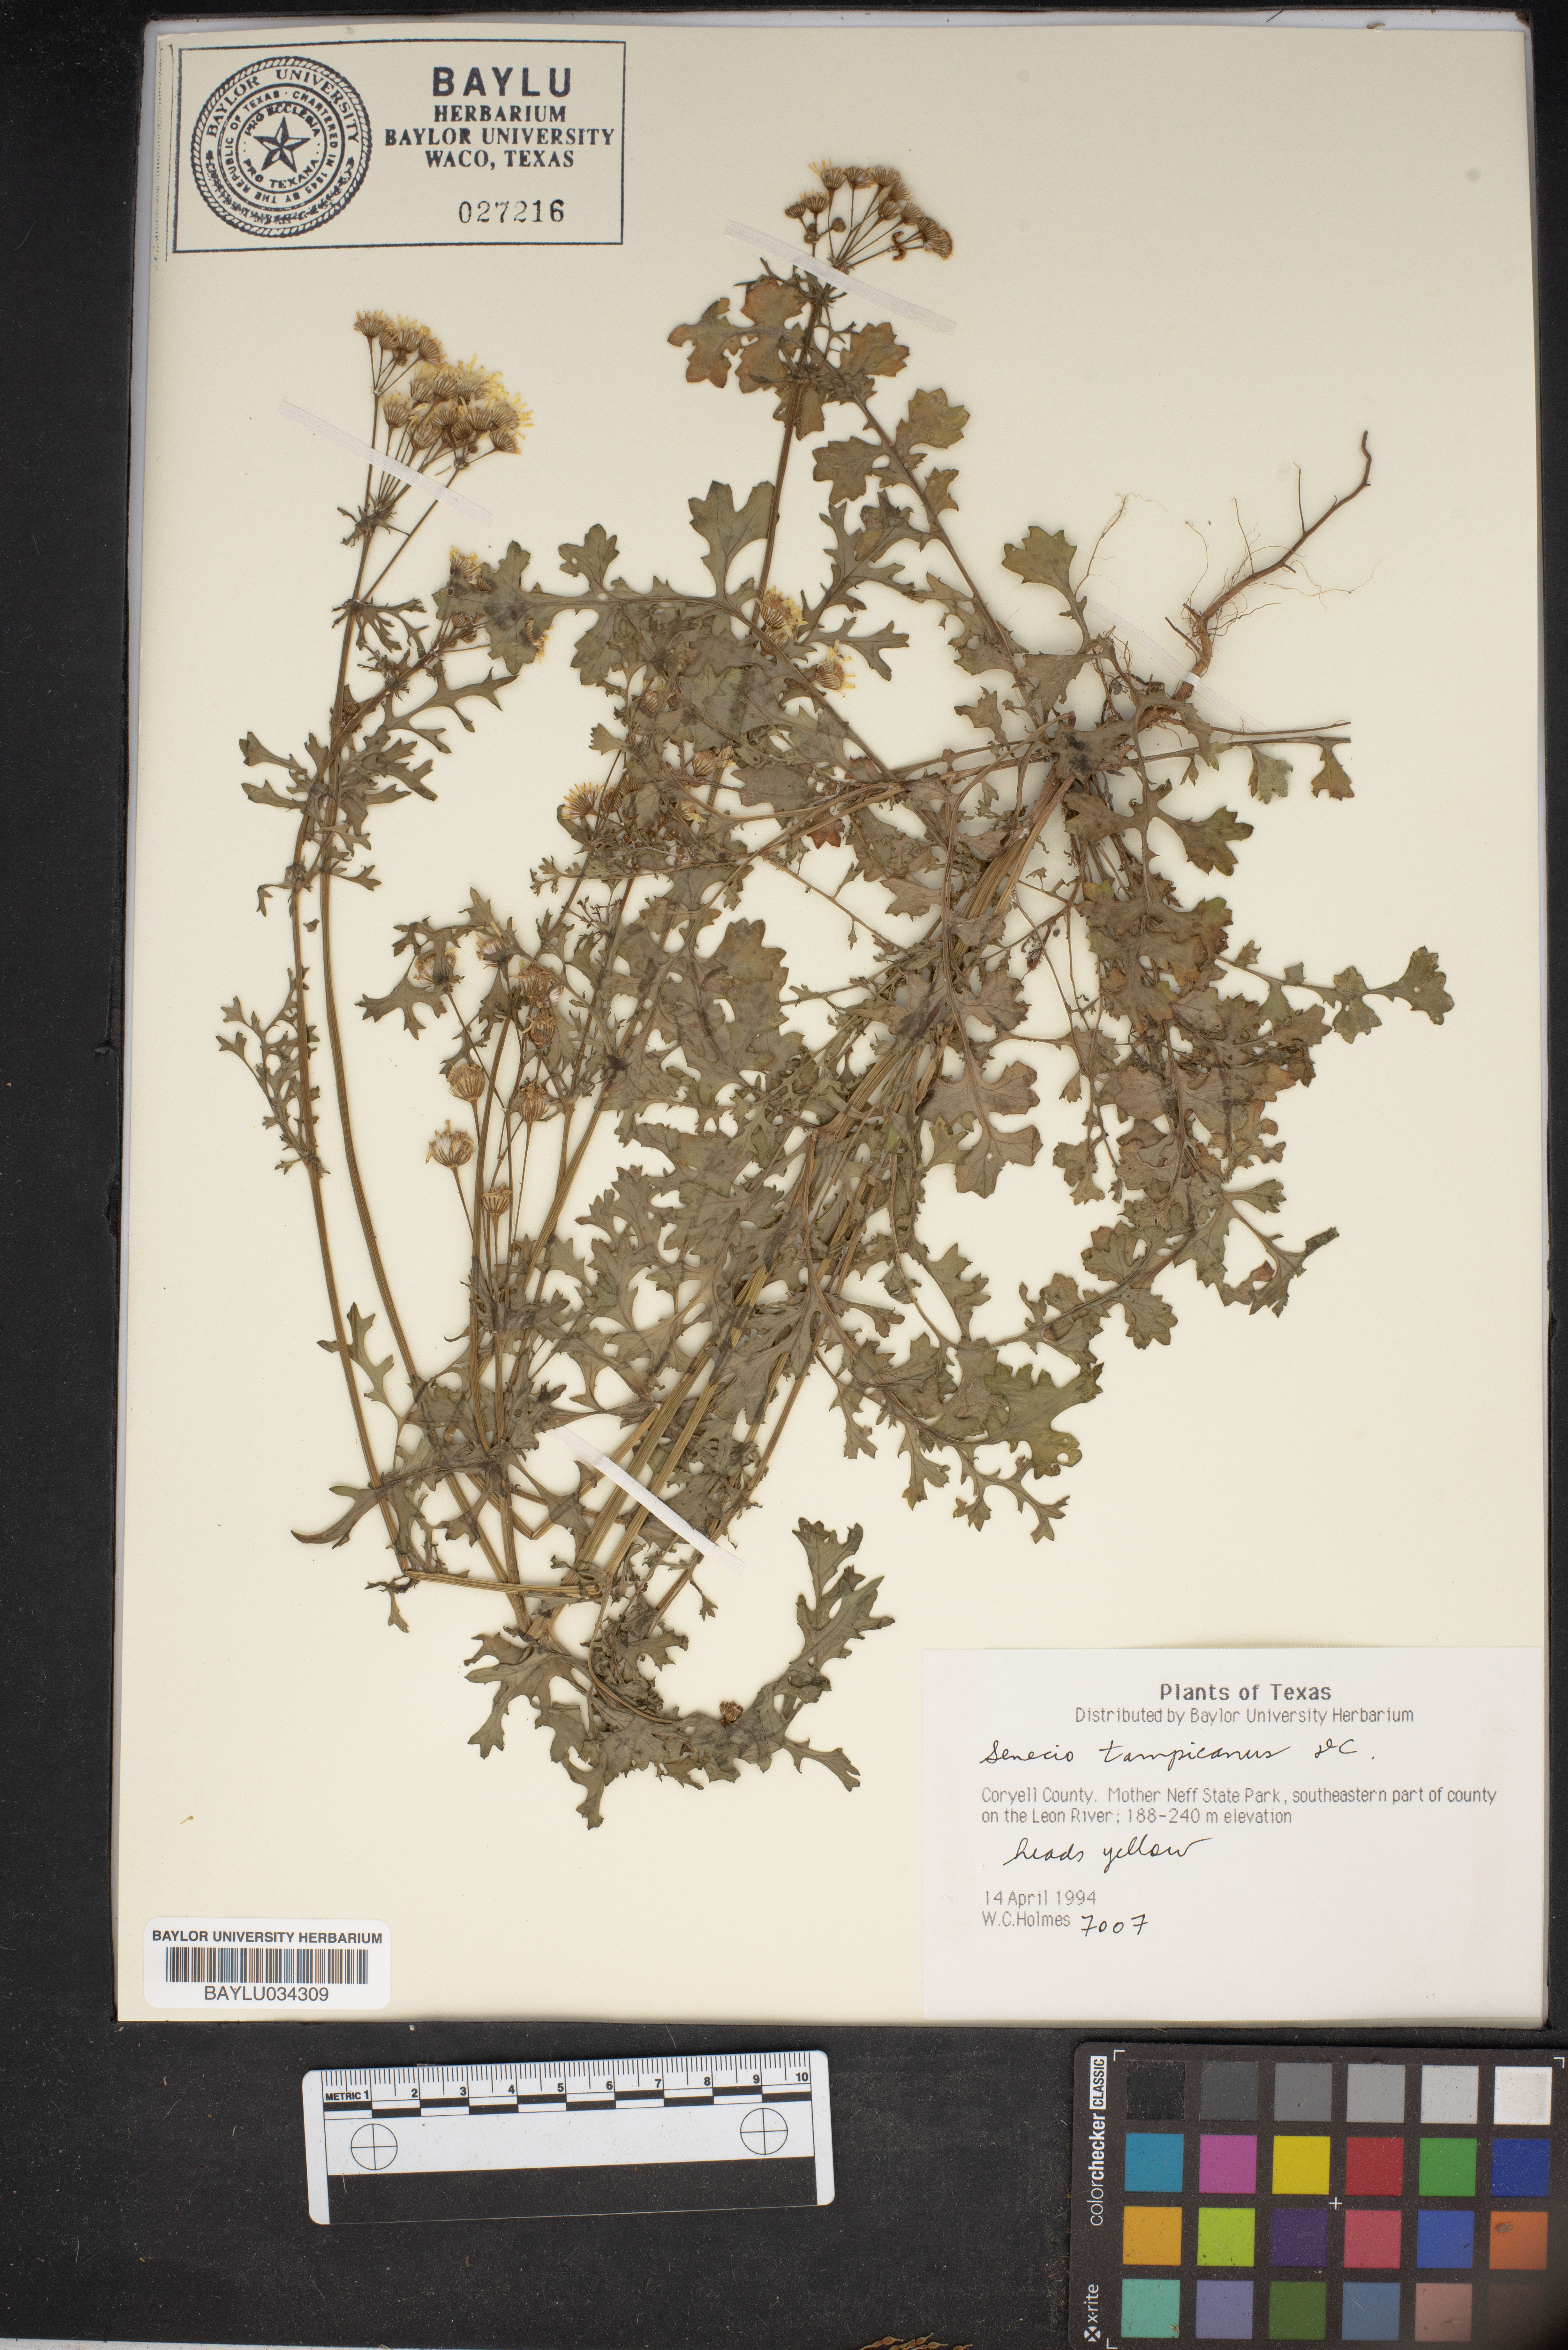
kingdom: Plantae
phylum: Tracheophyta
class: Magnoliopsida
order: Asterales
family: Asteraceae
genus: Packera
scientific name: Packera tampicana
